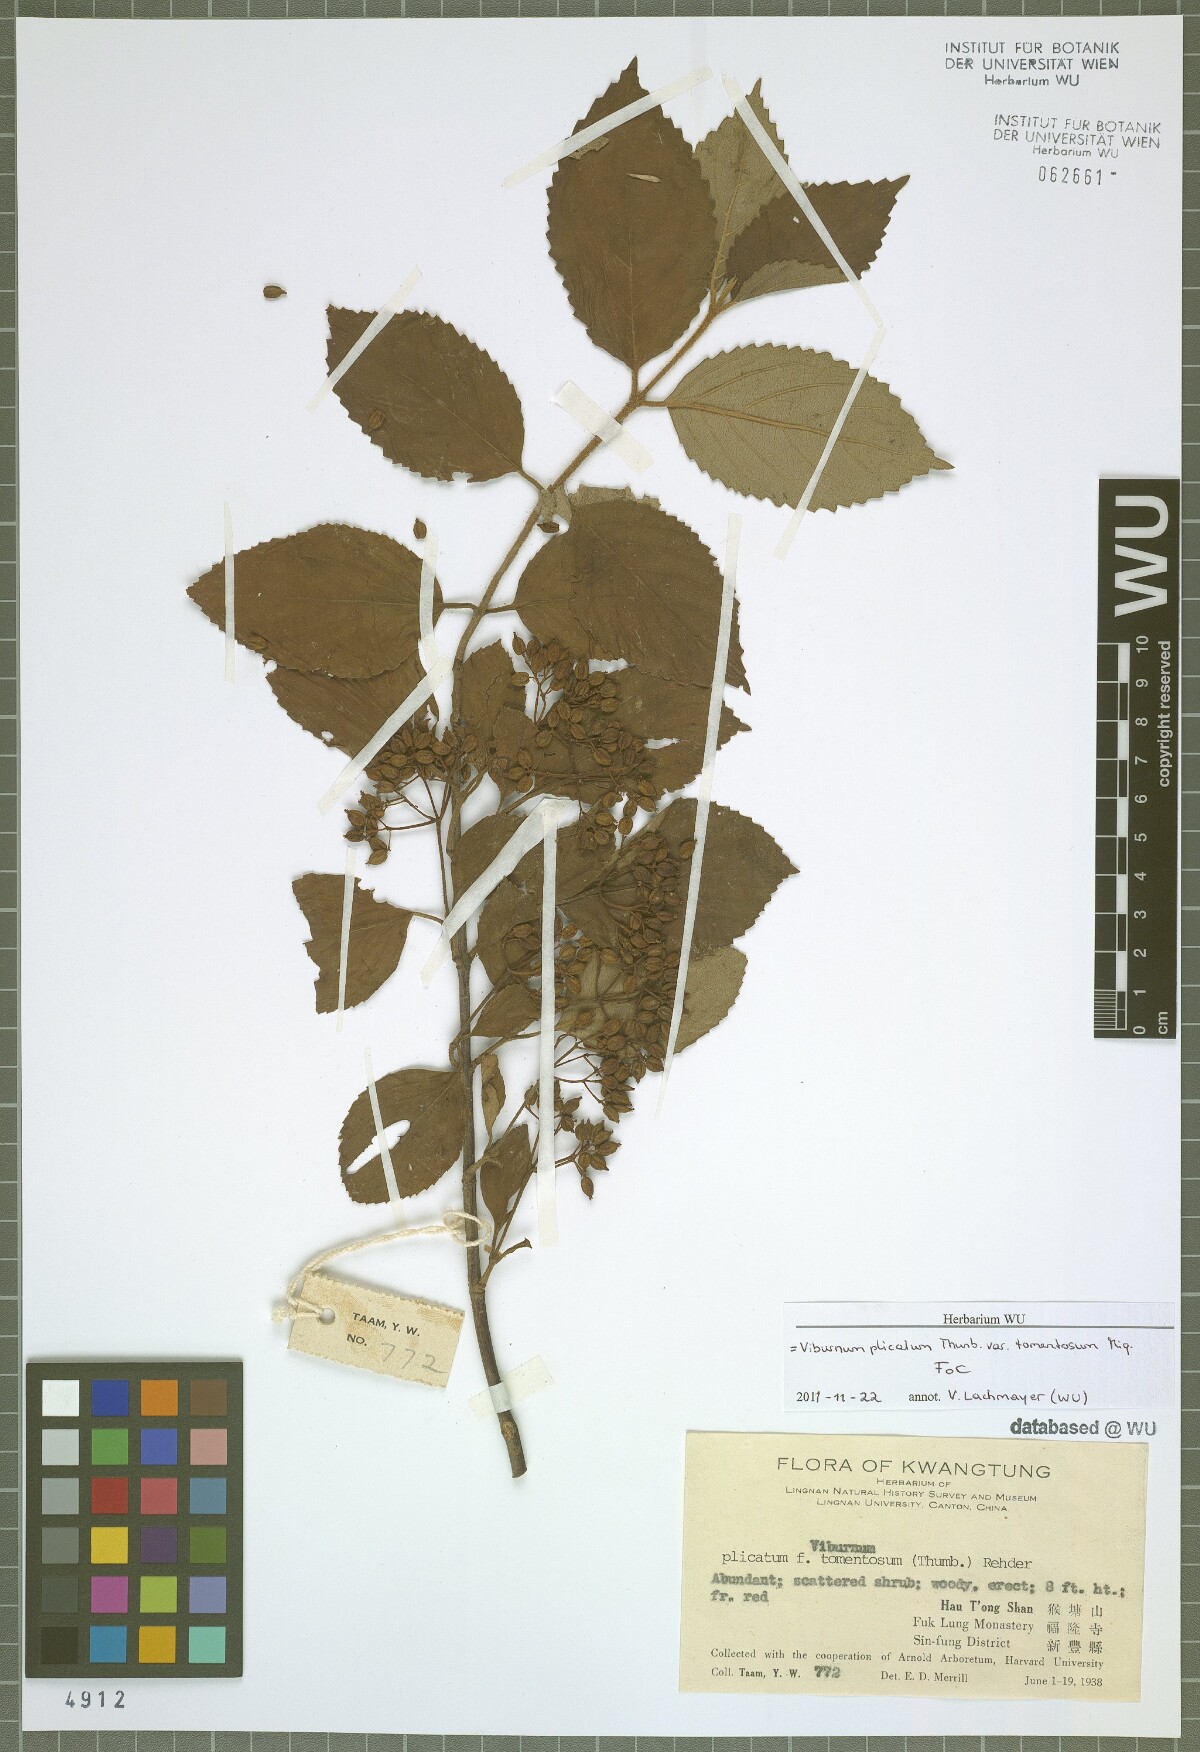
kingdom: Plantae
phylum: Tracheophyta
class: Magnoliopsida
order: Dipsacales
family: Viburnaceae
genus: Viburnum
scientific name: Viburnum plicatum
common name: Japanese snowball
